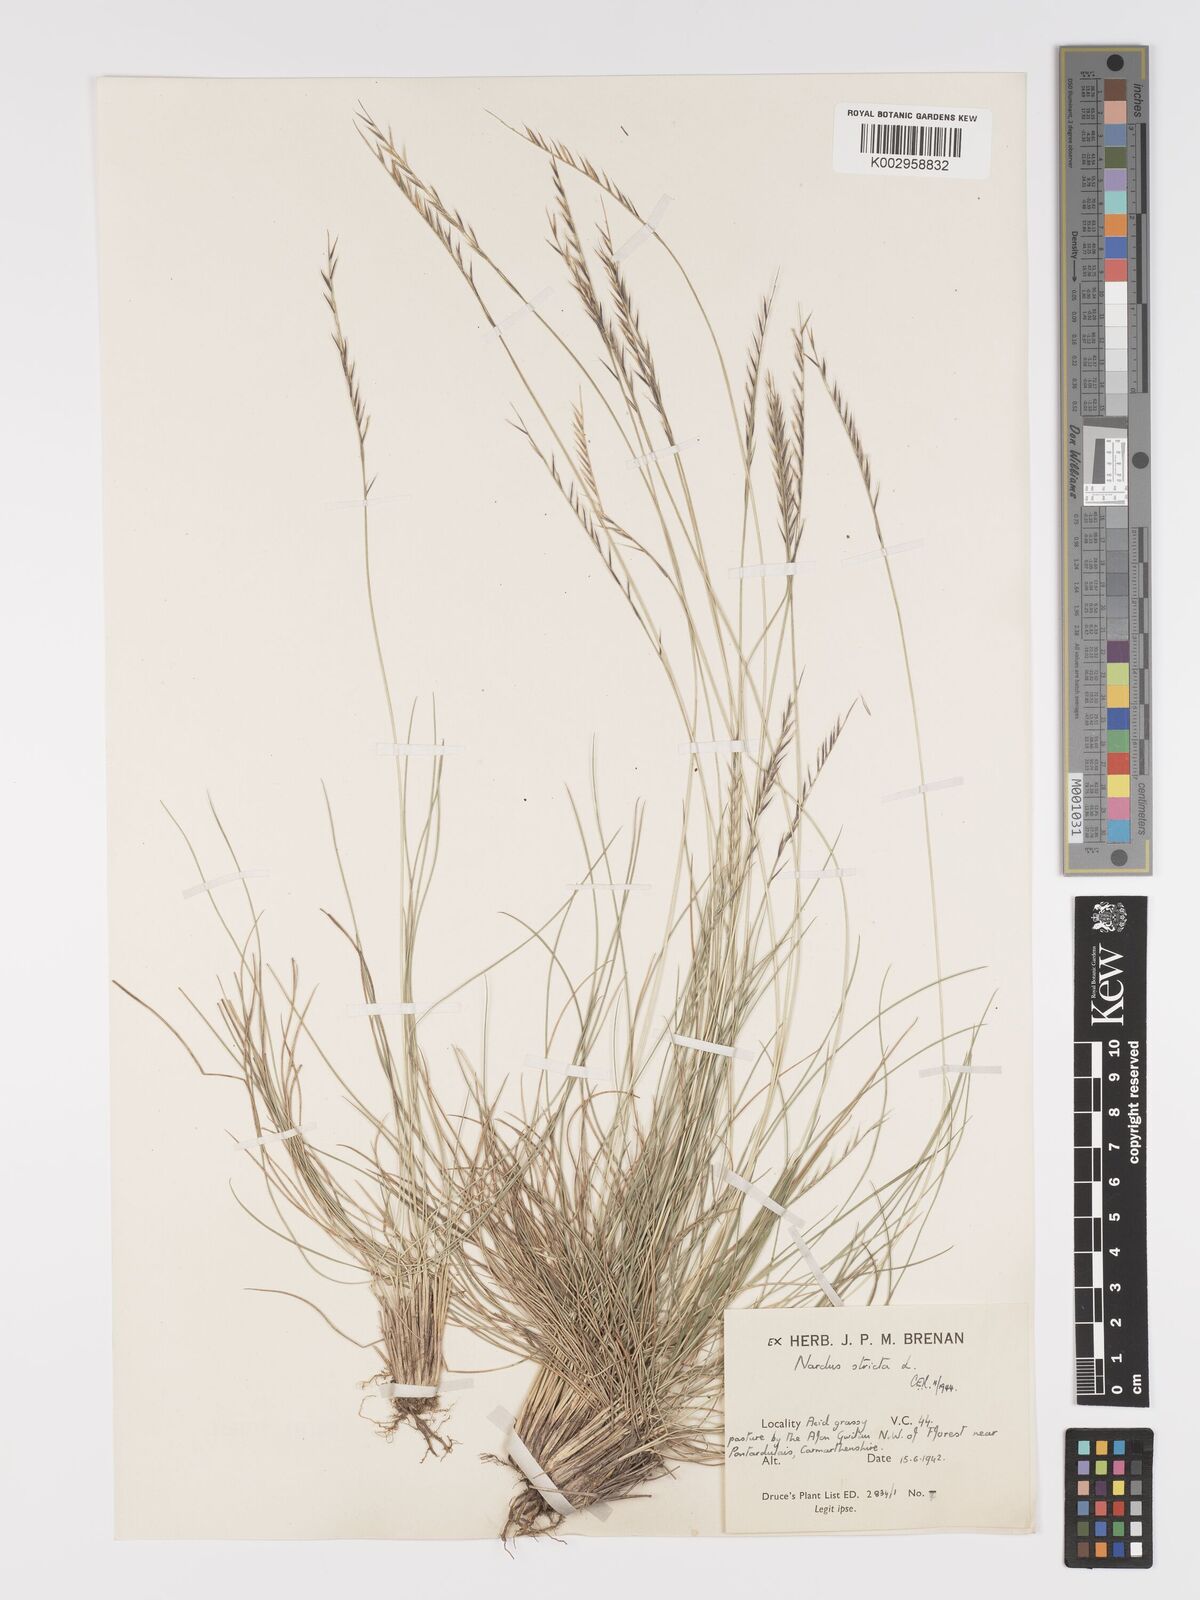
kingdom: Plantae
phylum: Tracheophyta
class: Liliopsida
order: Poales
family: Poaceae
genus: Nardus
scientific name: Nardus stricta
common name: Mat-grass
